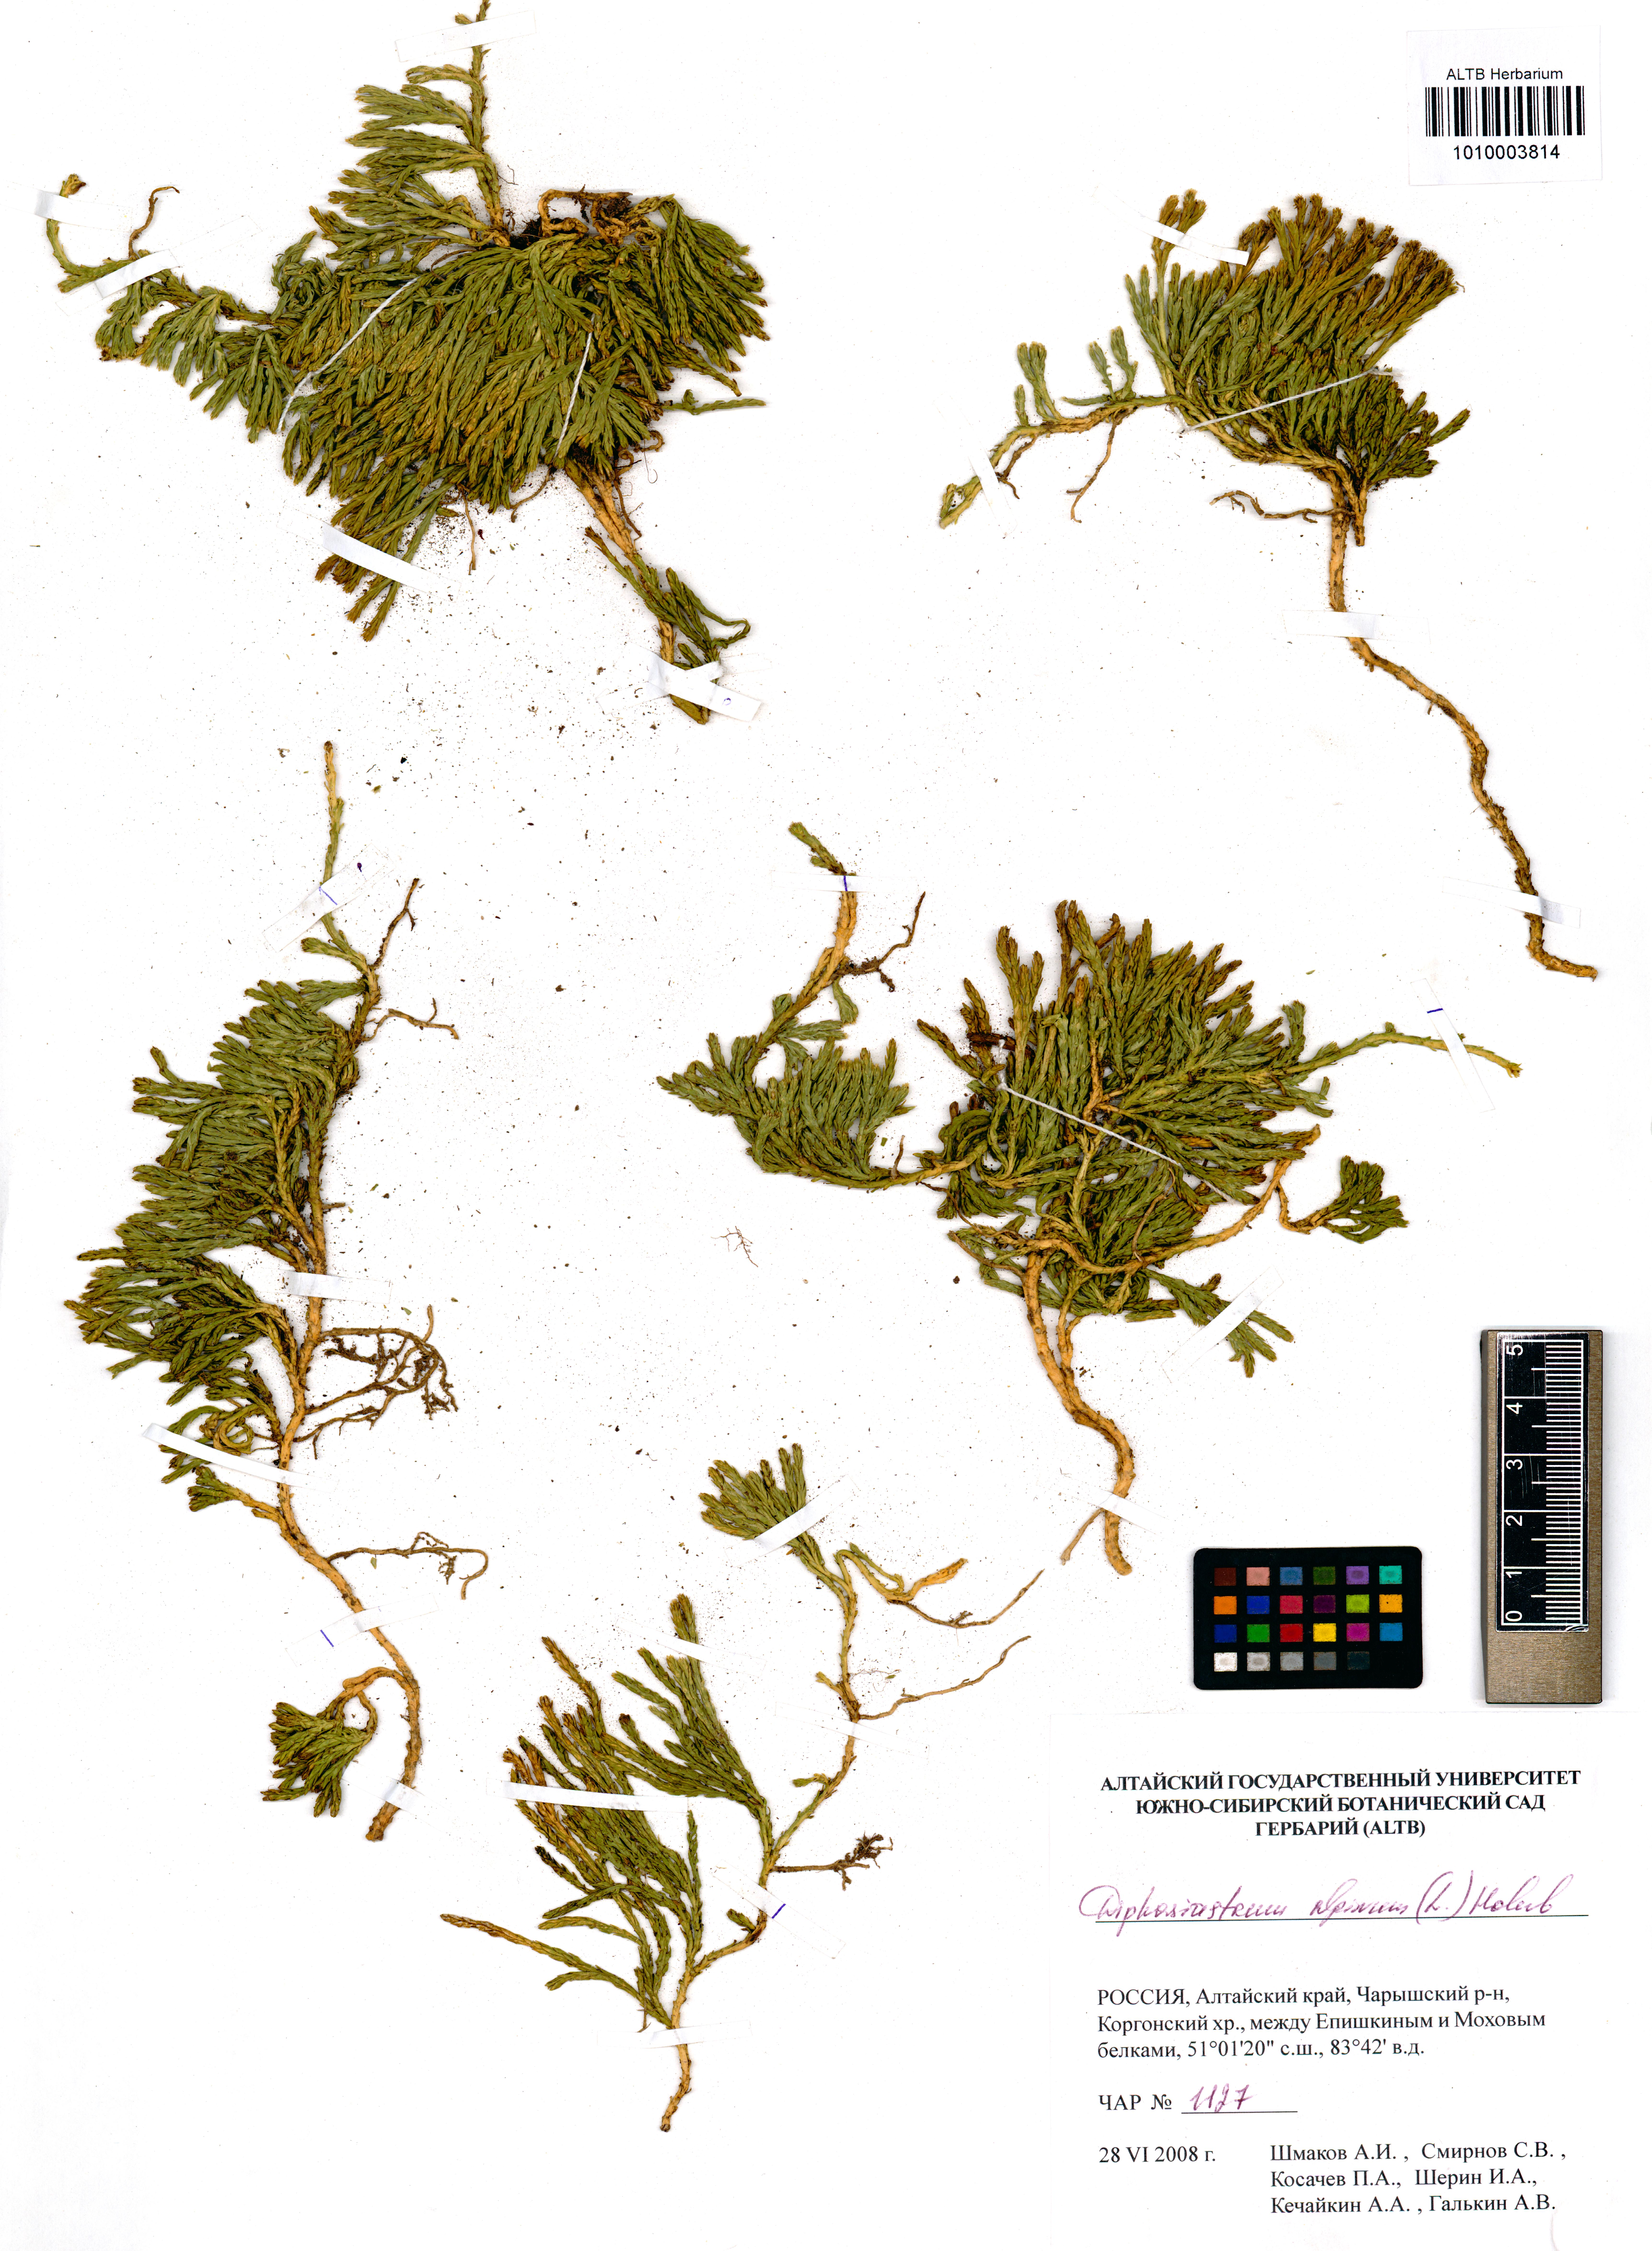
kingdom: Plantae
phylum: Tracheophyta
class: Lycopodiopsida
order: Lycopodiales
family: Lycopodiaceae
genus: Diphasiastrum
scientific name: Diphasiastrum alpinum
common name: Alpine clubmoss
